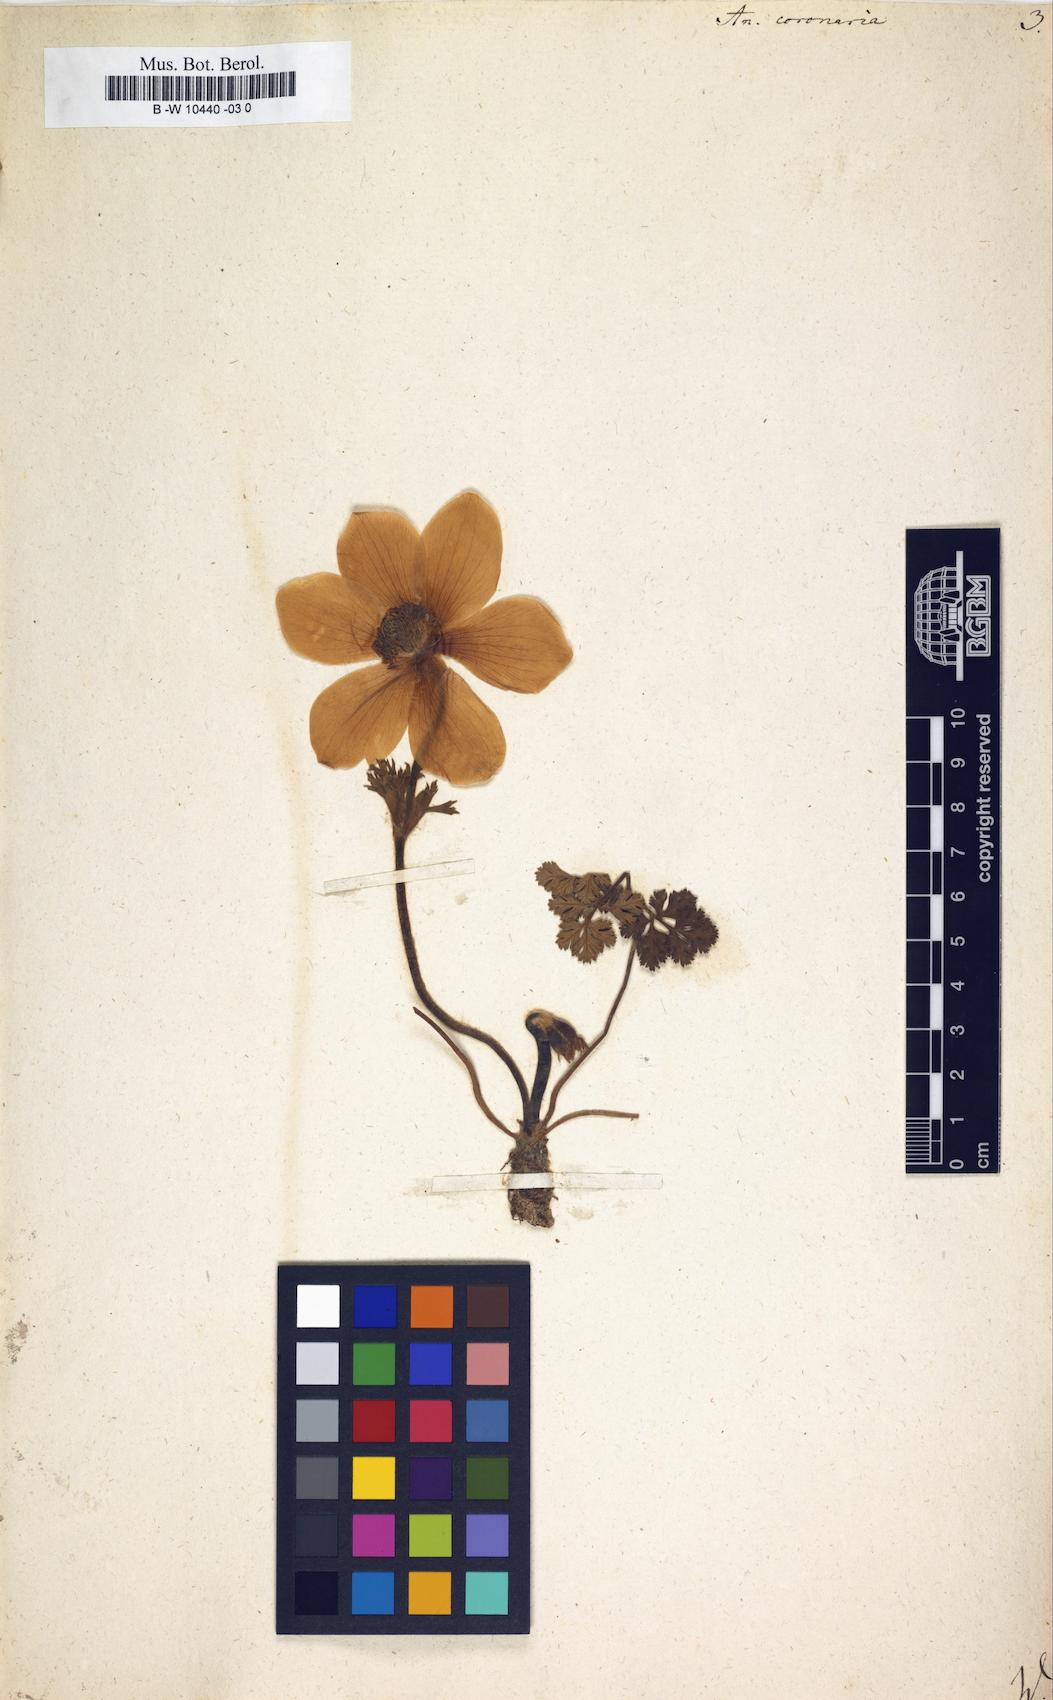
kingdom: Plantae
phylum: Tracheophyta
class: Magnoliopsida
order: Ranunculales
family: Ranunculaceae
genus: Anemone
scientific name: Anemone coronaria
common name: Poppy anemone
